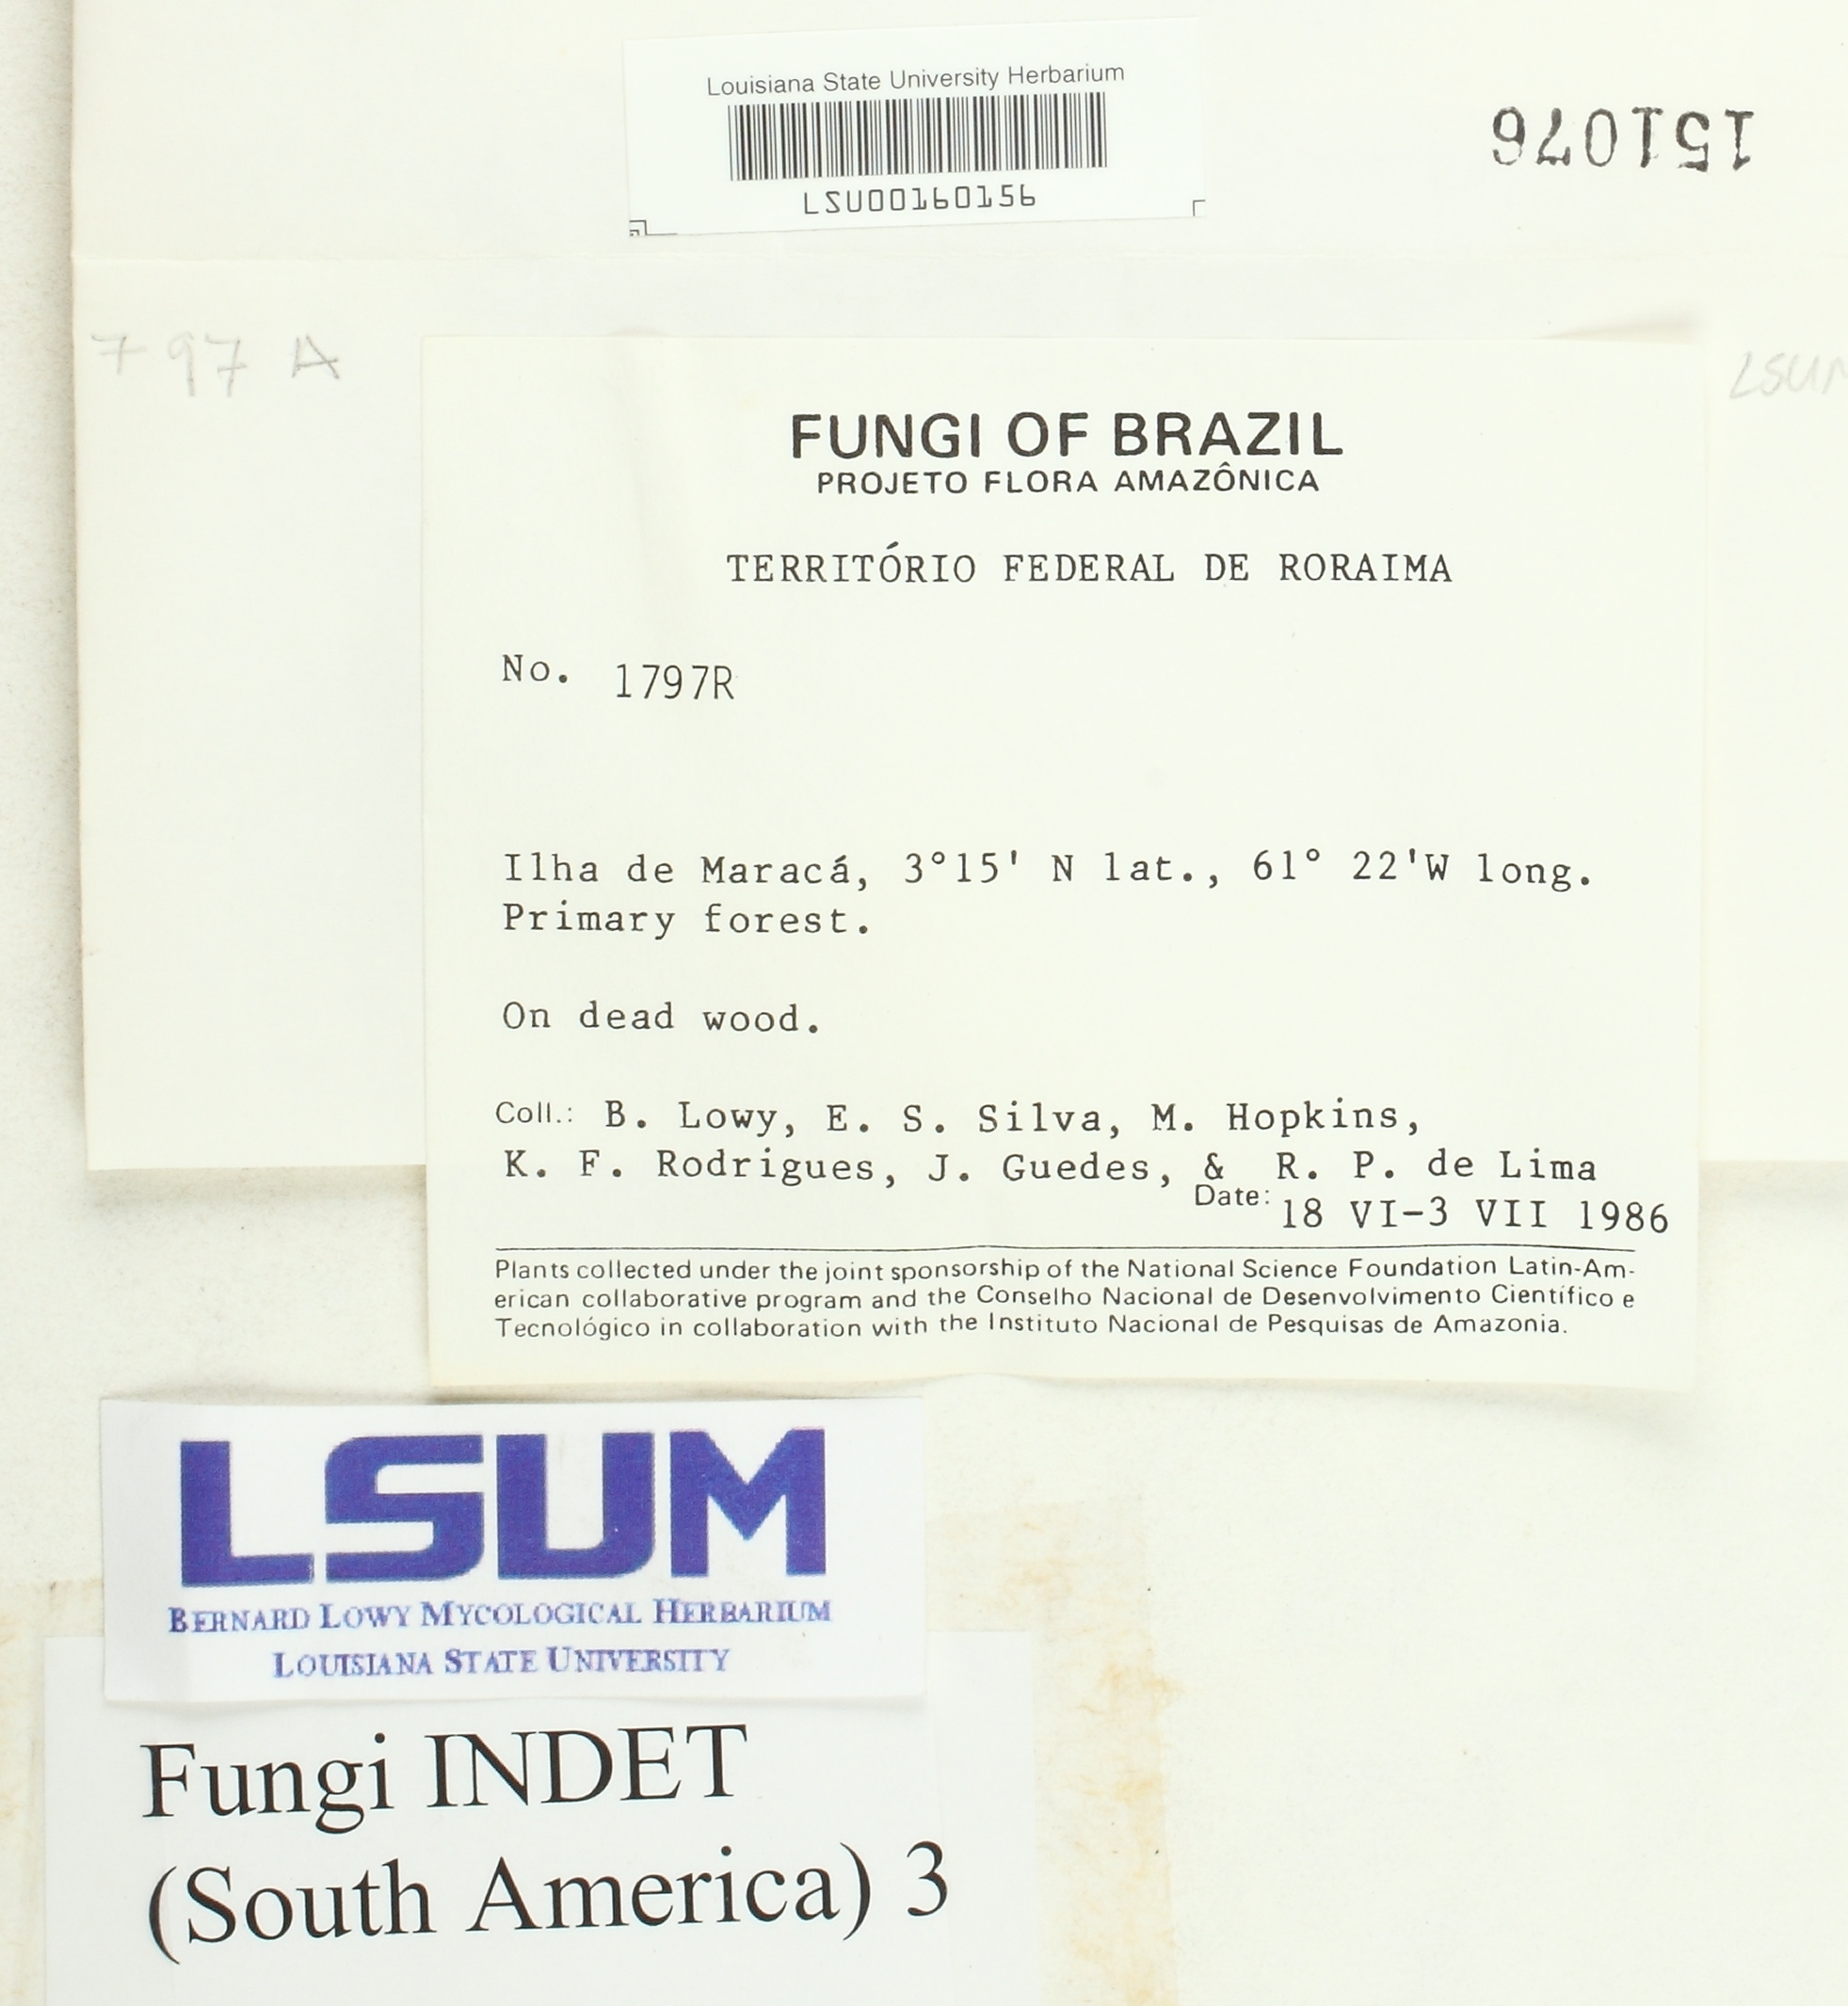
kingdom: Fungi
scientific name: Fungi
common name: Fungi
